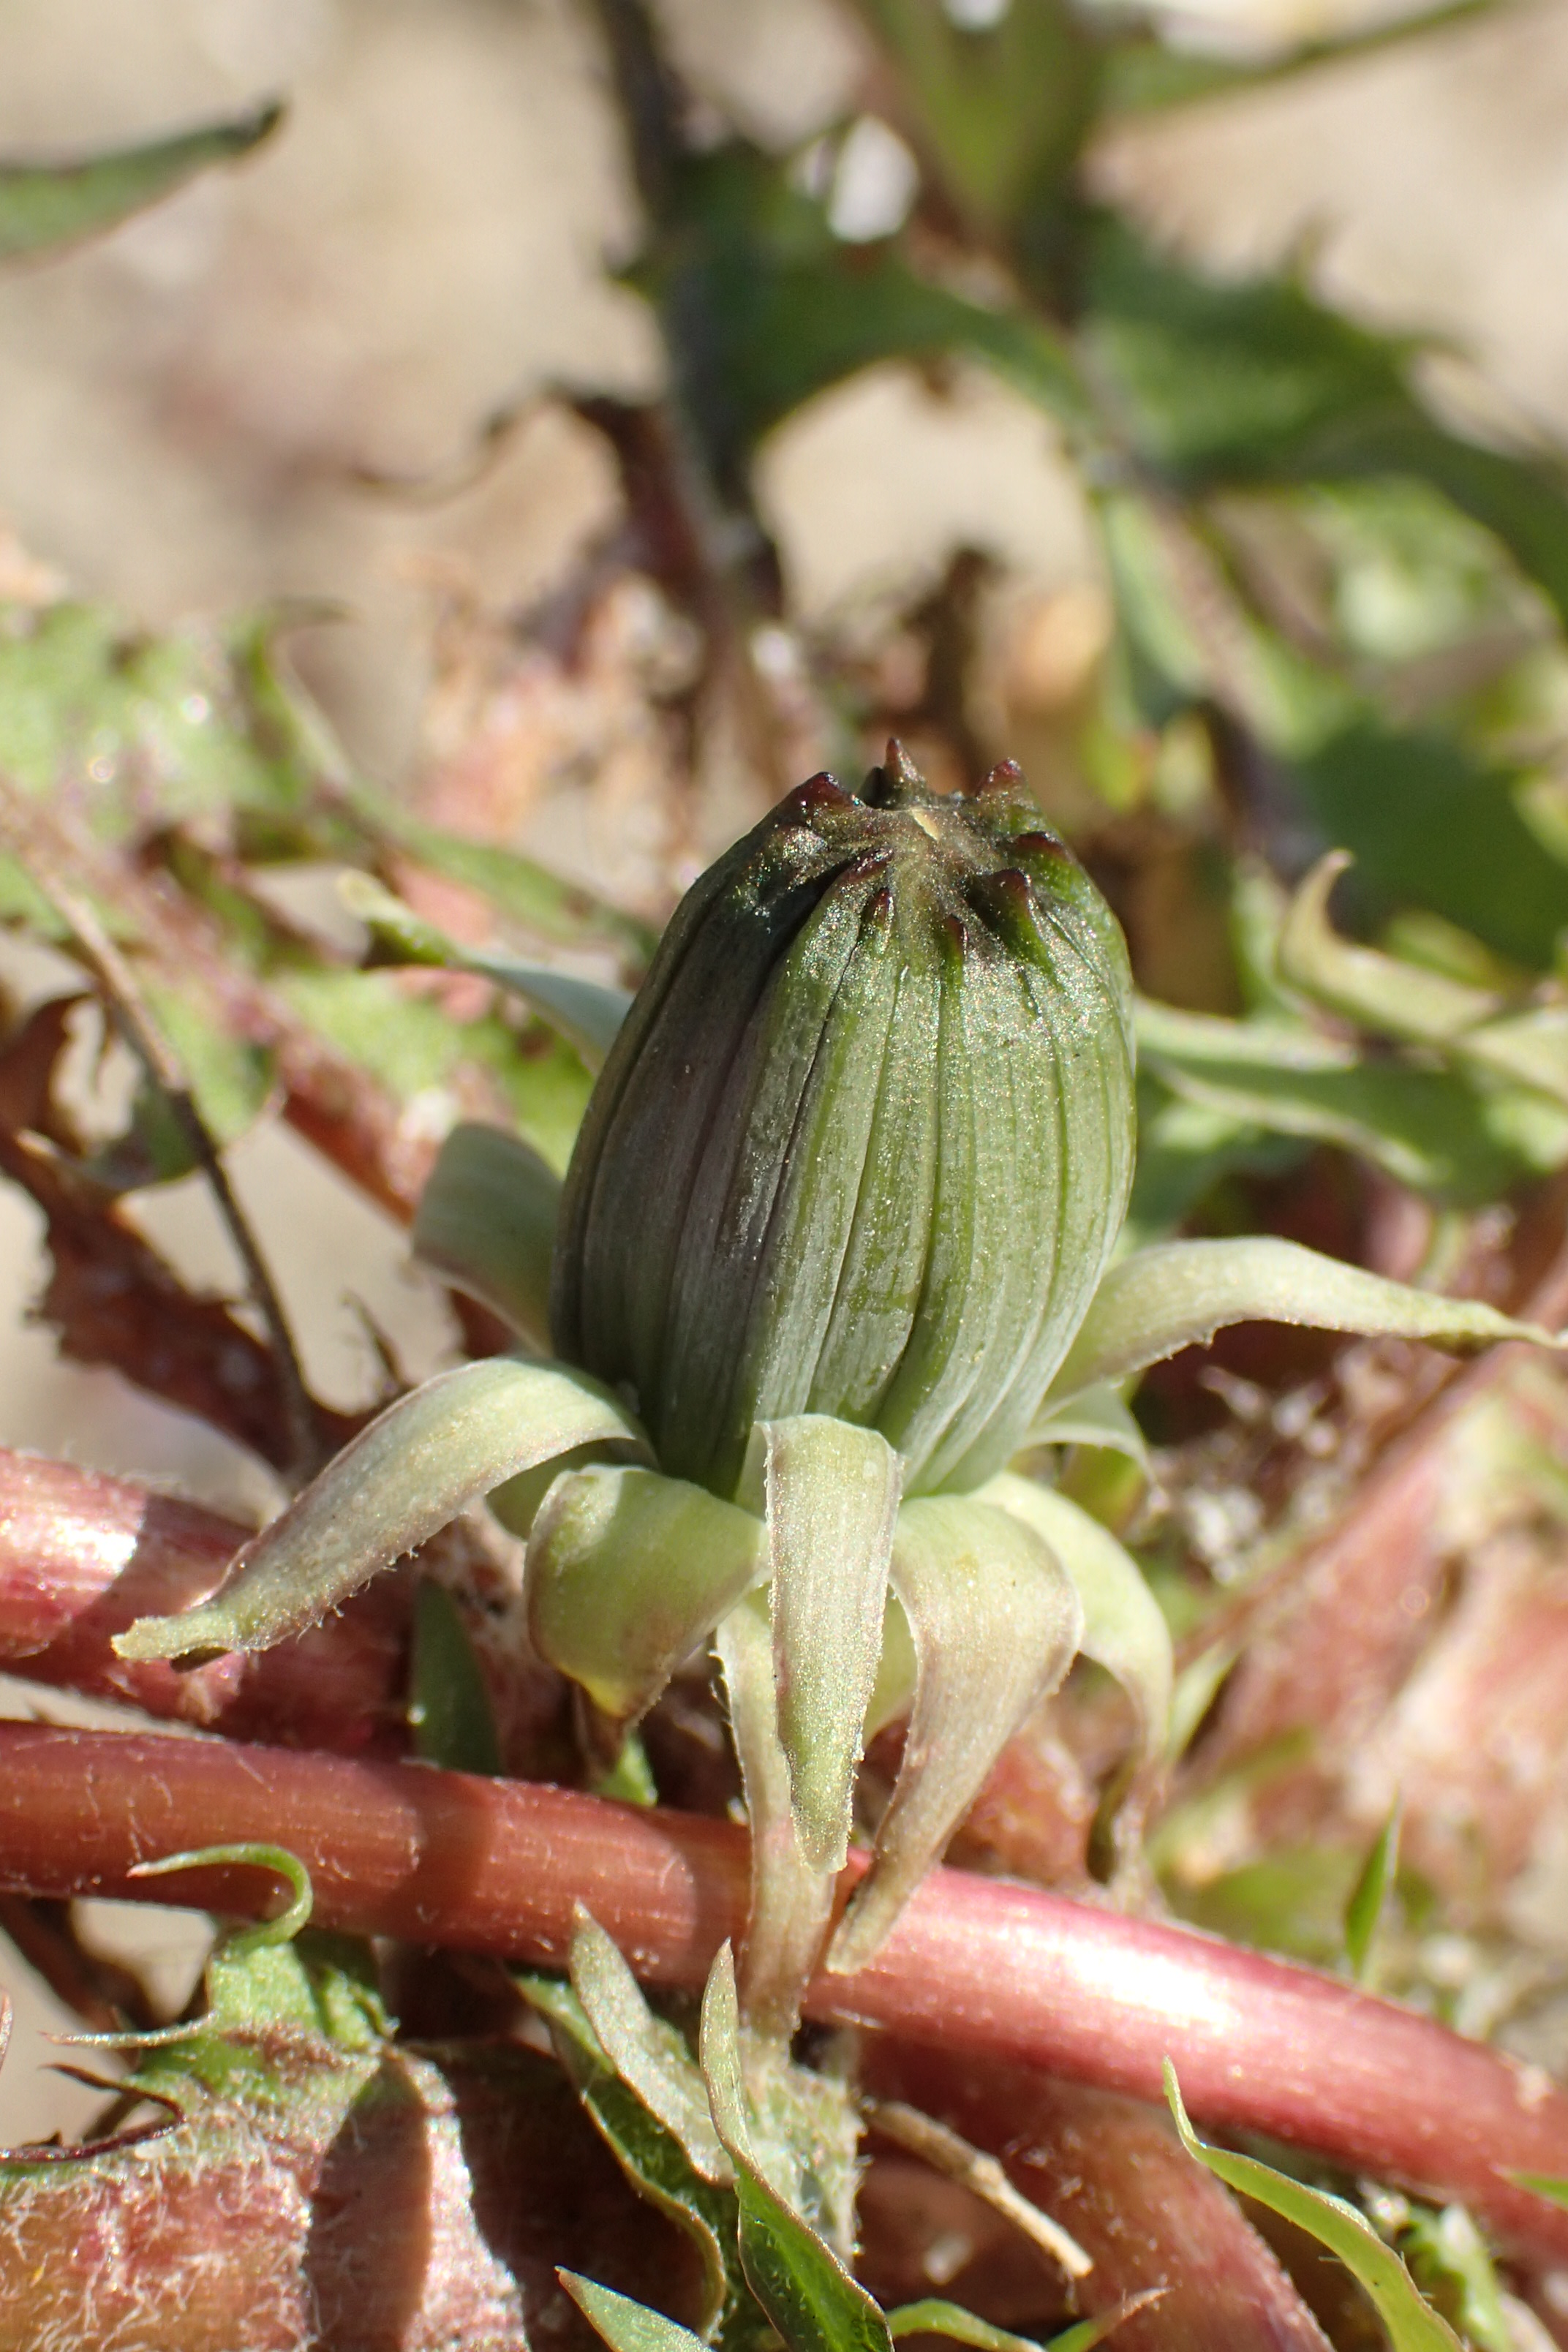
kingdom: Plantae
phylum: Tracheophyta
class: Magnoliopsida
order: Asterales
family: Asteraceae
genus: Taraxacum
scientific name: Taraxacum acutilimbatum
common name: Skarp sandmælkebøtte
